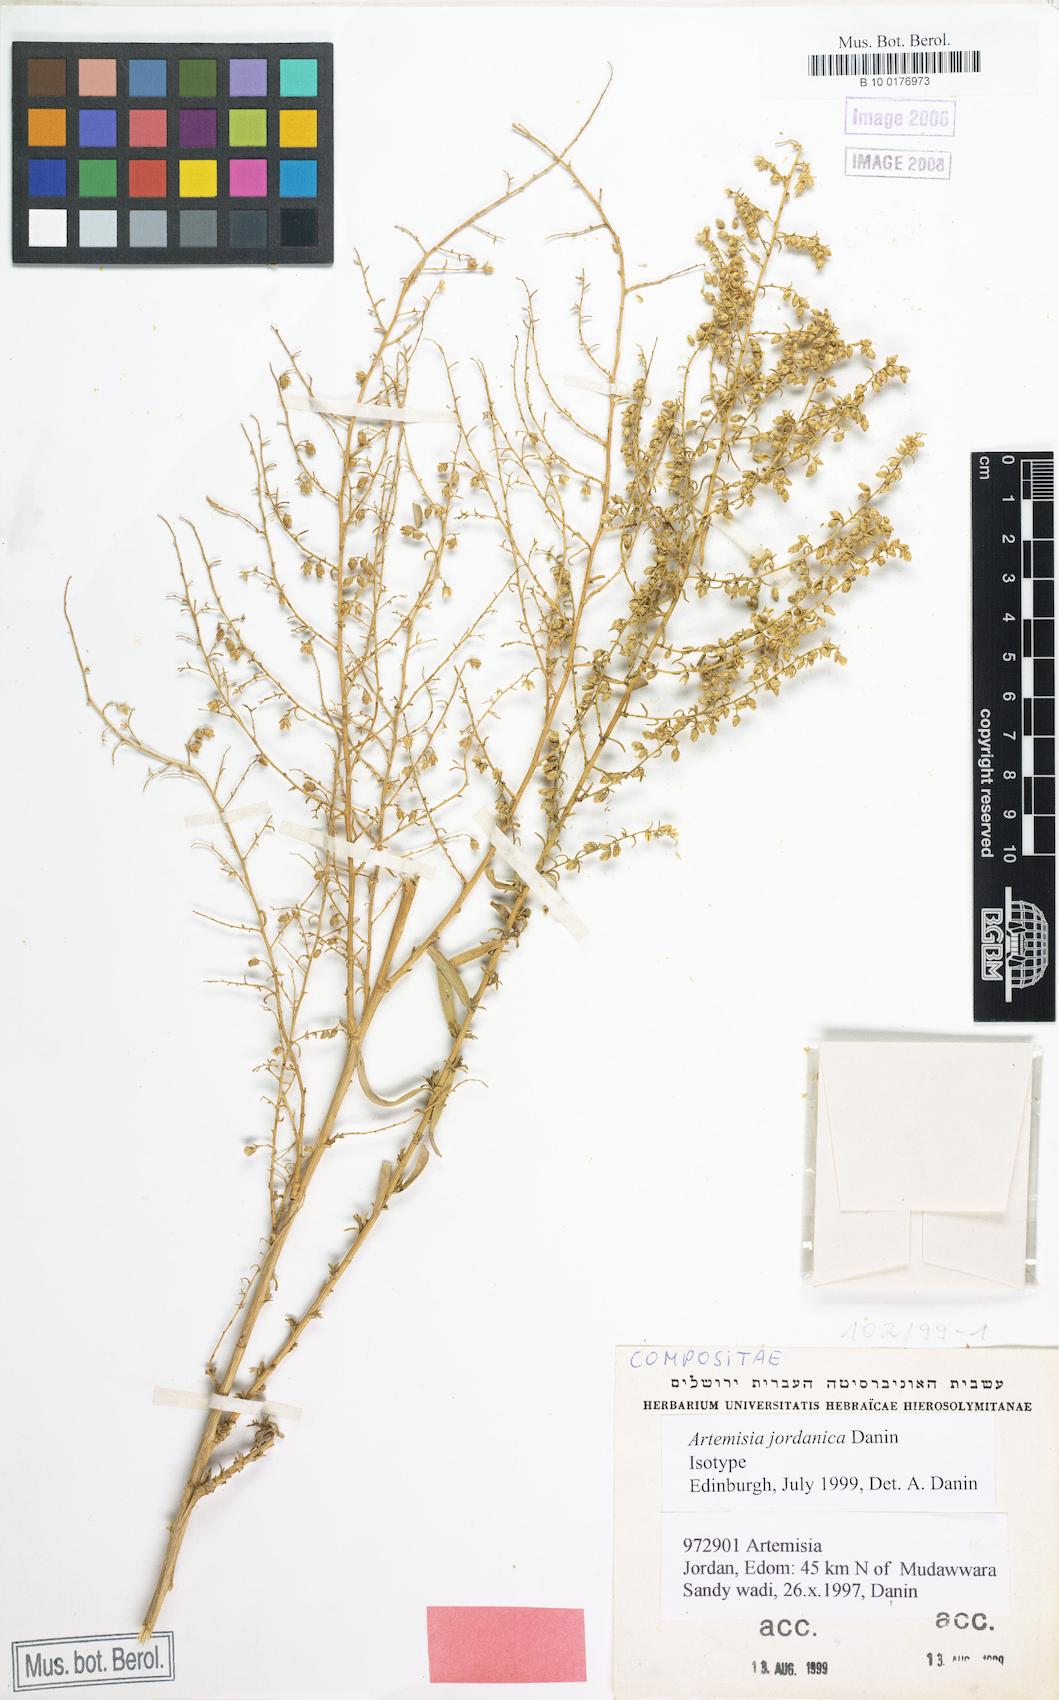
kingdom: Plantae
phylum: Tracheophyta
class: Magnoliopsida
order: Asterales
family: Asteraceae
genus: Artemisia
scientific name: Artemisia jordanica
